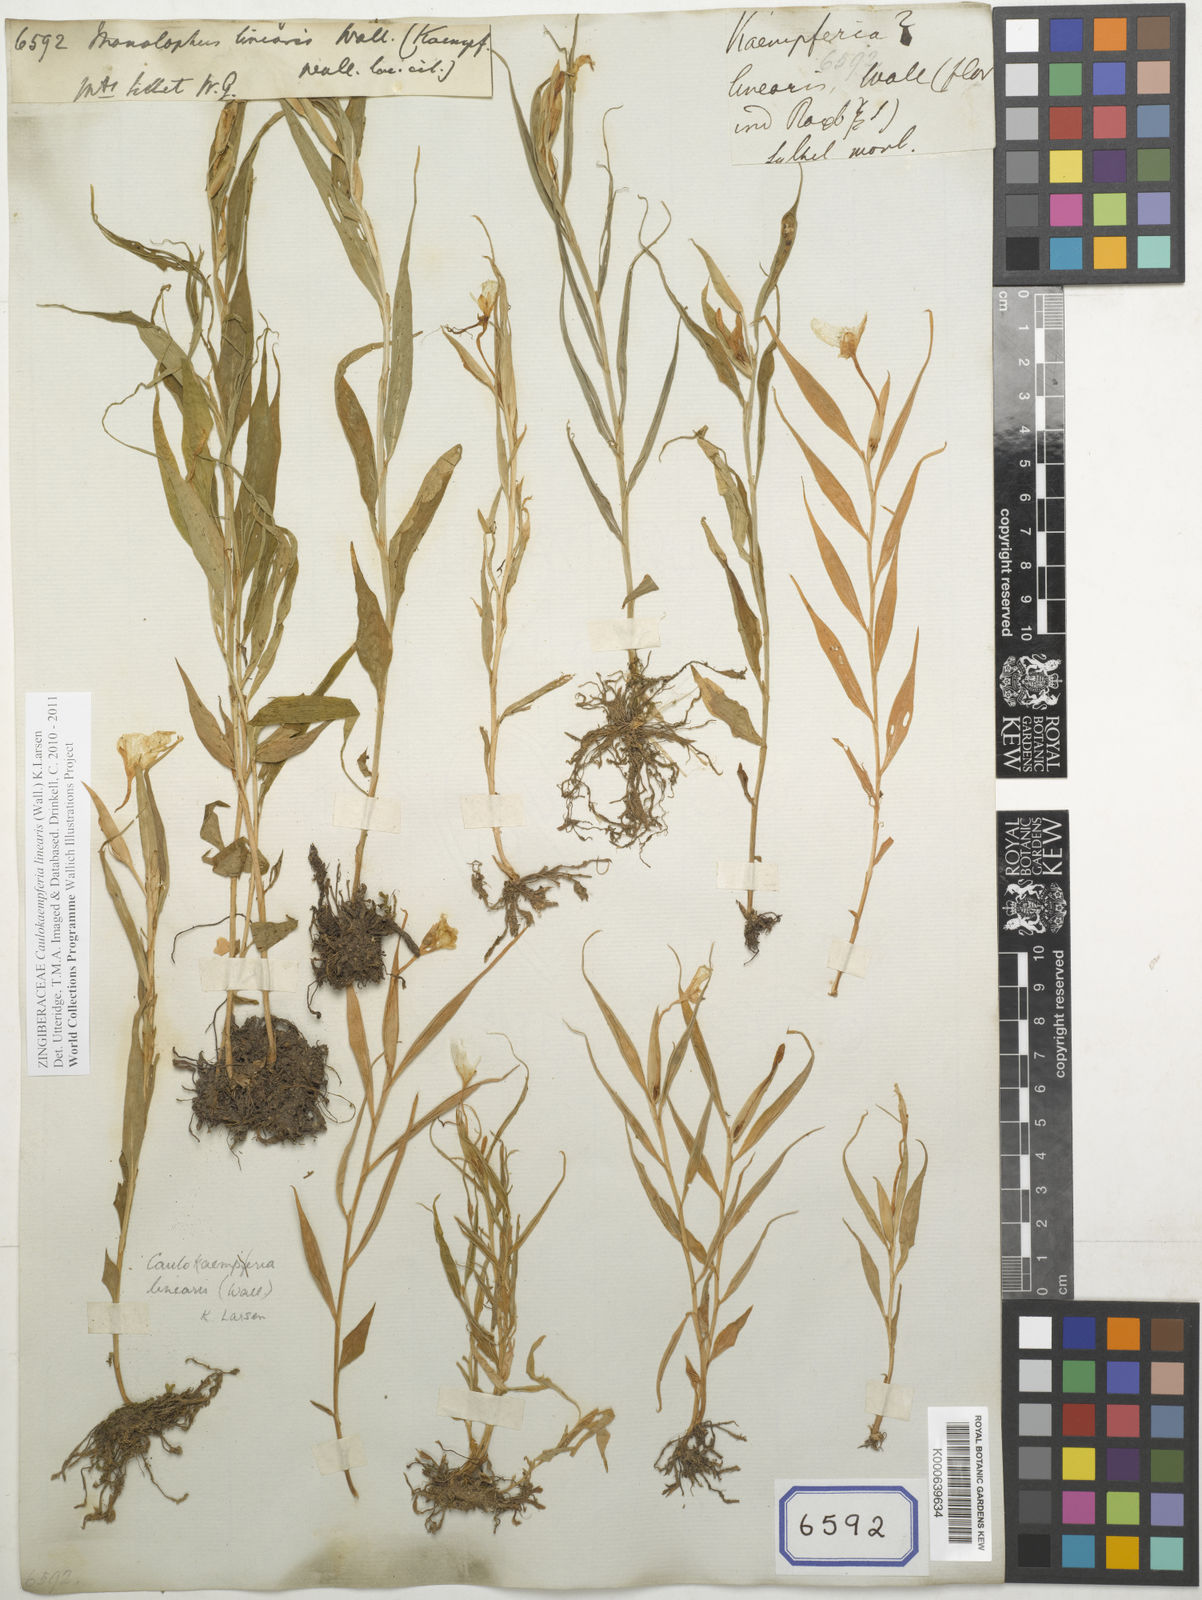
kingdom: Plantae
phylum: Tracheophyta
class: Liliopsida
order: Zingiberales
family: Zingiberaceae
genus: Caulokaempferia
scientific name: Caulokaempferia linearis
